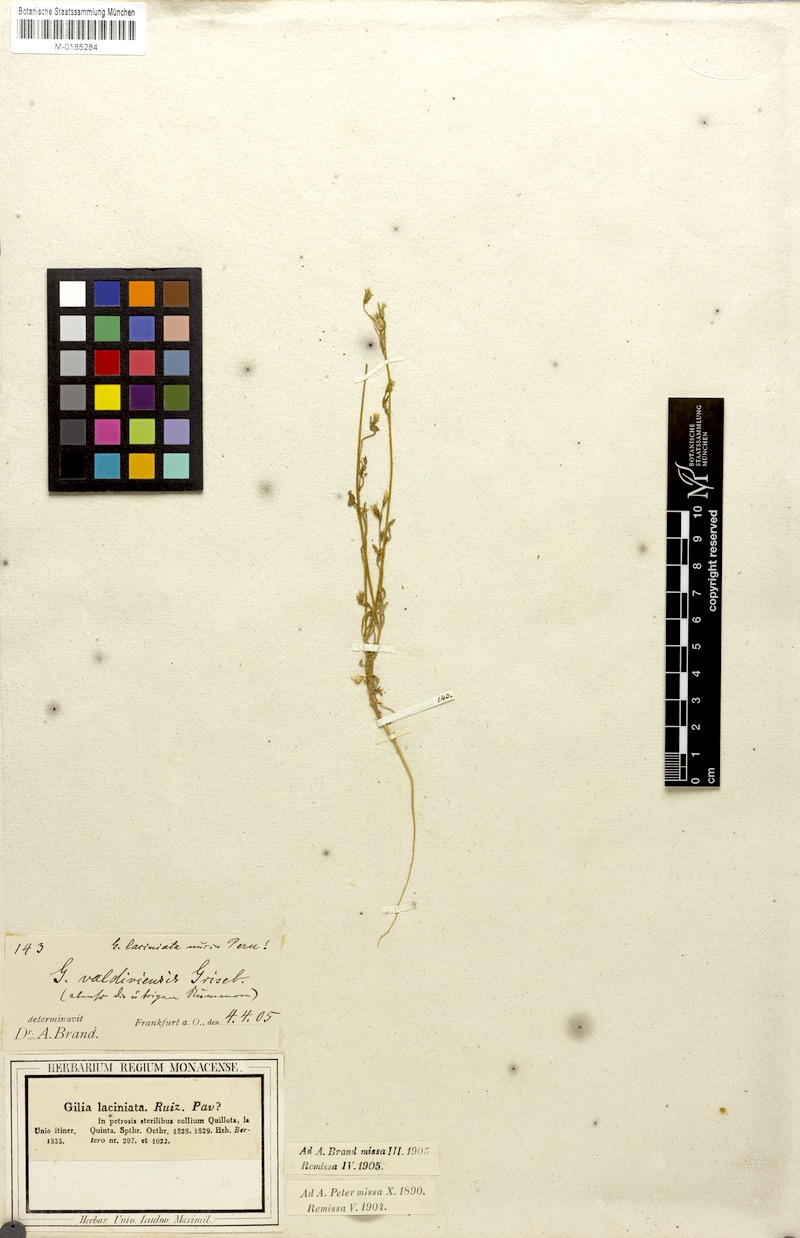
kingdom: Plantae
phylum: Tracheophyta
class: Magnoliopsida
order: Ericales
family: Polemoniaceae
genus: Gilia
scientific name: Gilia valdiviensis
